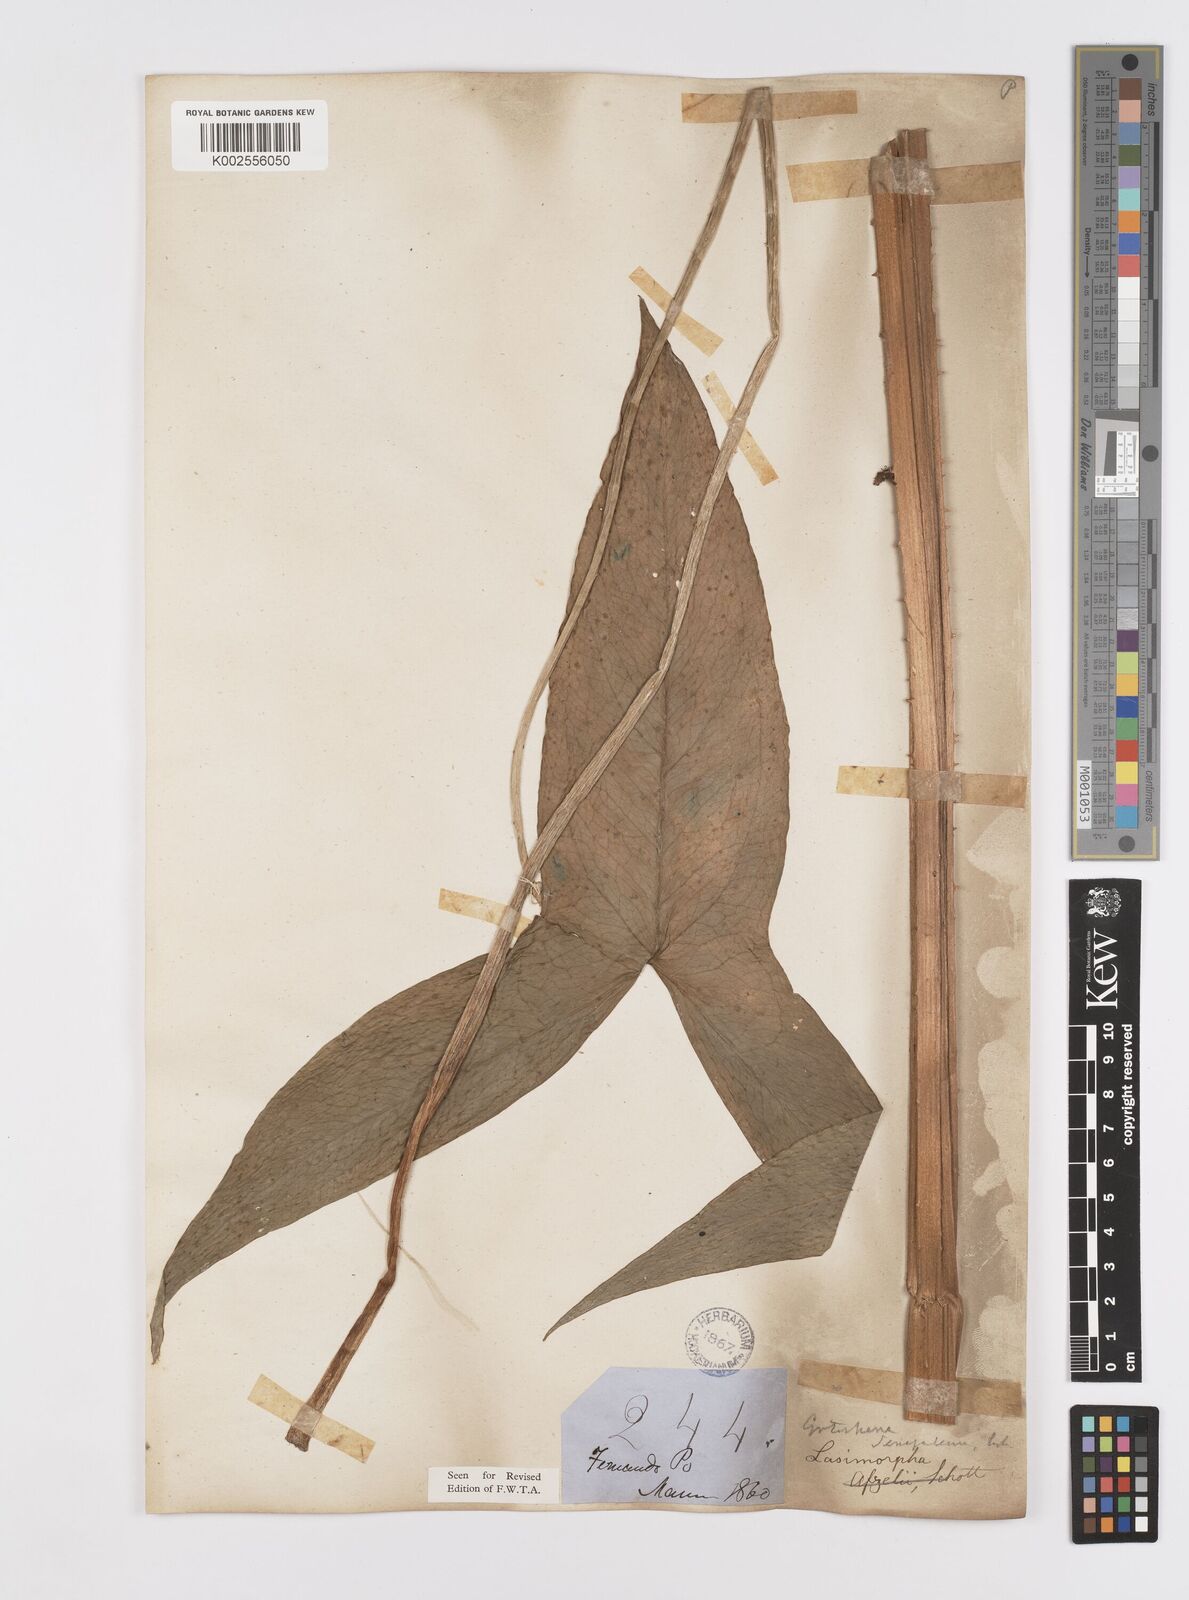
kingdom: Plantae
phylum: Tracheophyta
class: Liliopsida
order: Alismatales
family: Araceae
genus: Lasimorpha
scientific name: Lasimorpha senegalensis
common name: Swamp arum
